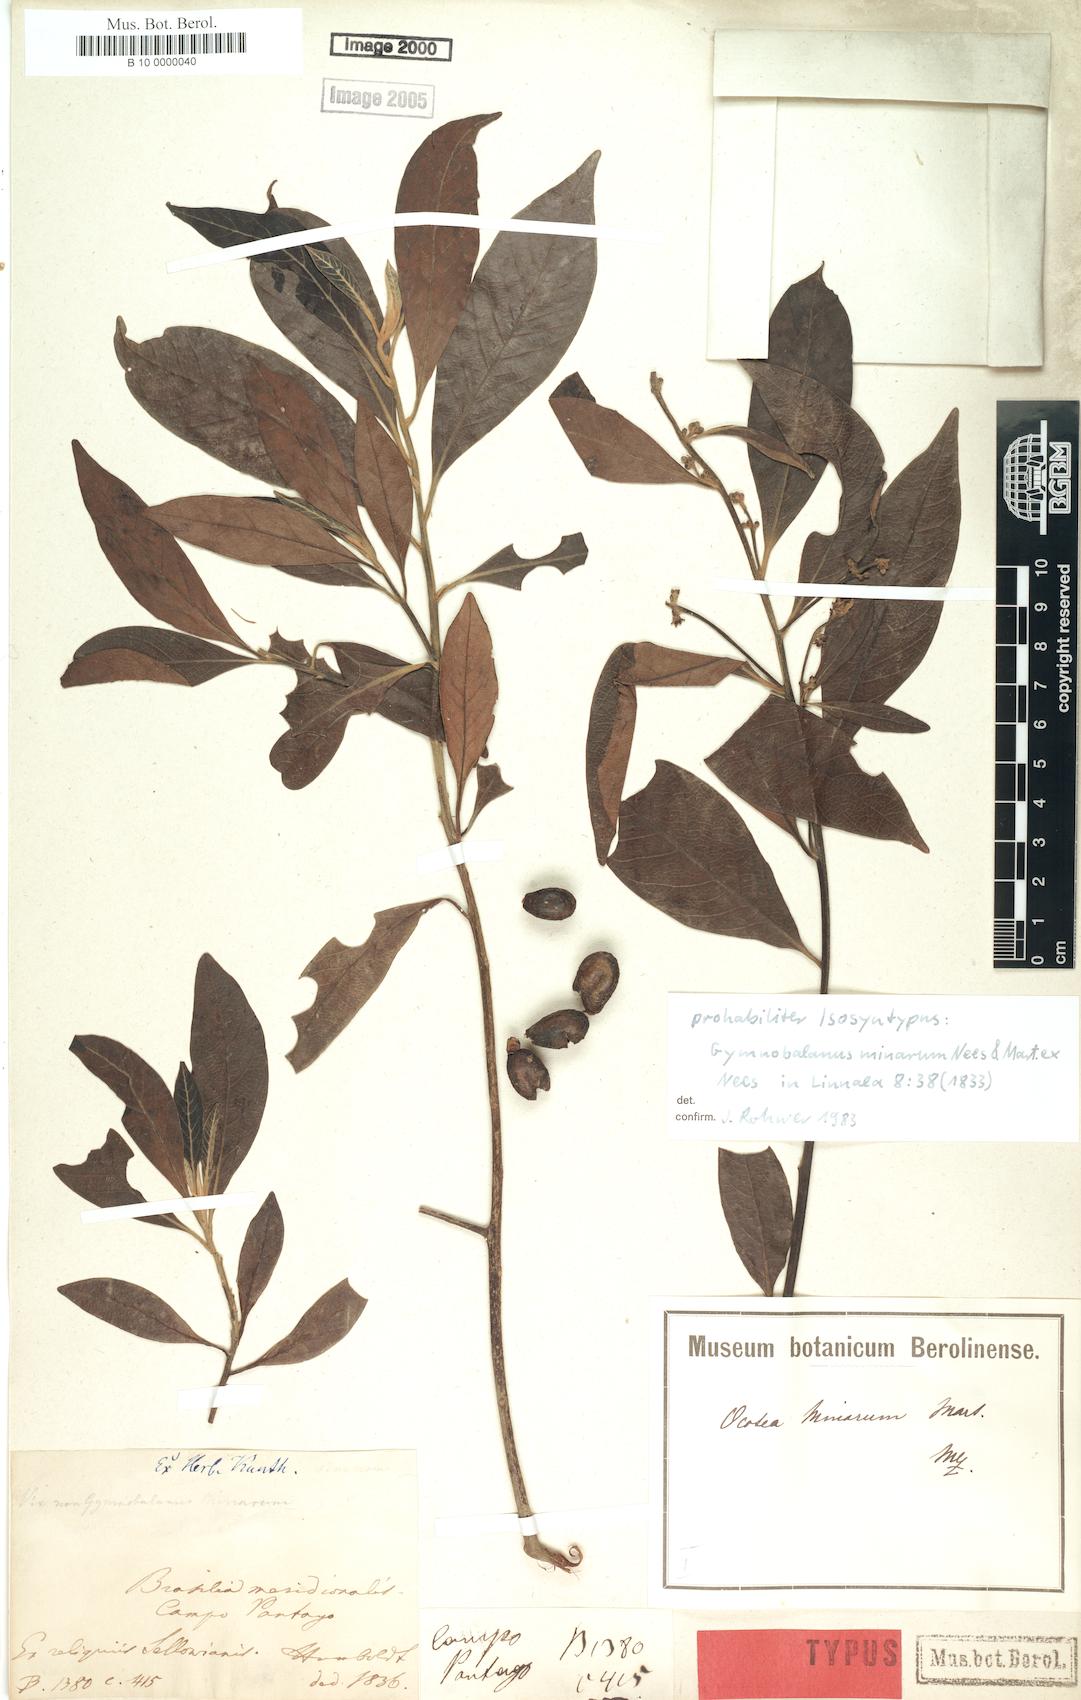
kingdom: Plantae
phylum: Tracheophyta
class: Magnoliopsida
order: Laurales
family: Lauraceae
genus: Ocotea
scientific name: Ocotea minarum
